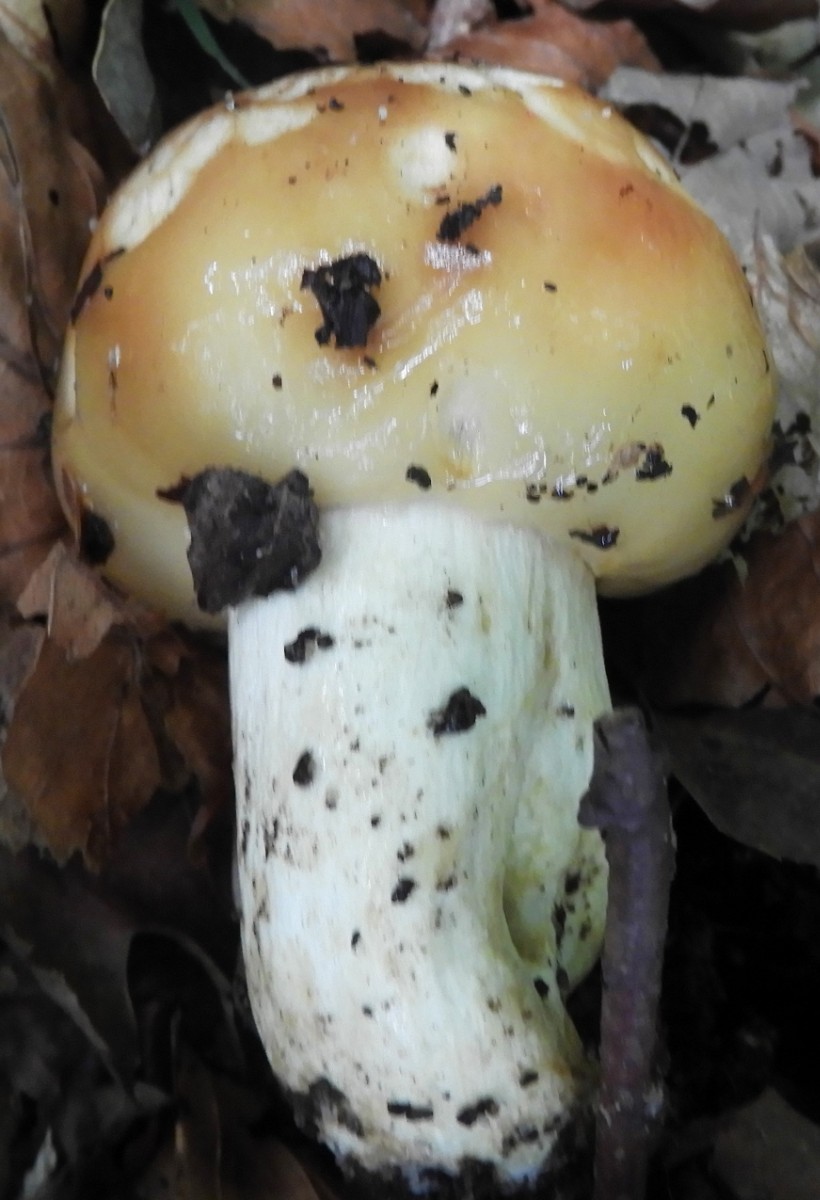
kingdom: Fungi
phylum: Basidiomycota
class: Agaricomycetes
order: Russulales
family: Russulaceae
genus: Russula
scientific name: Russula foetens
